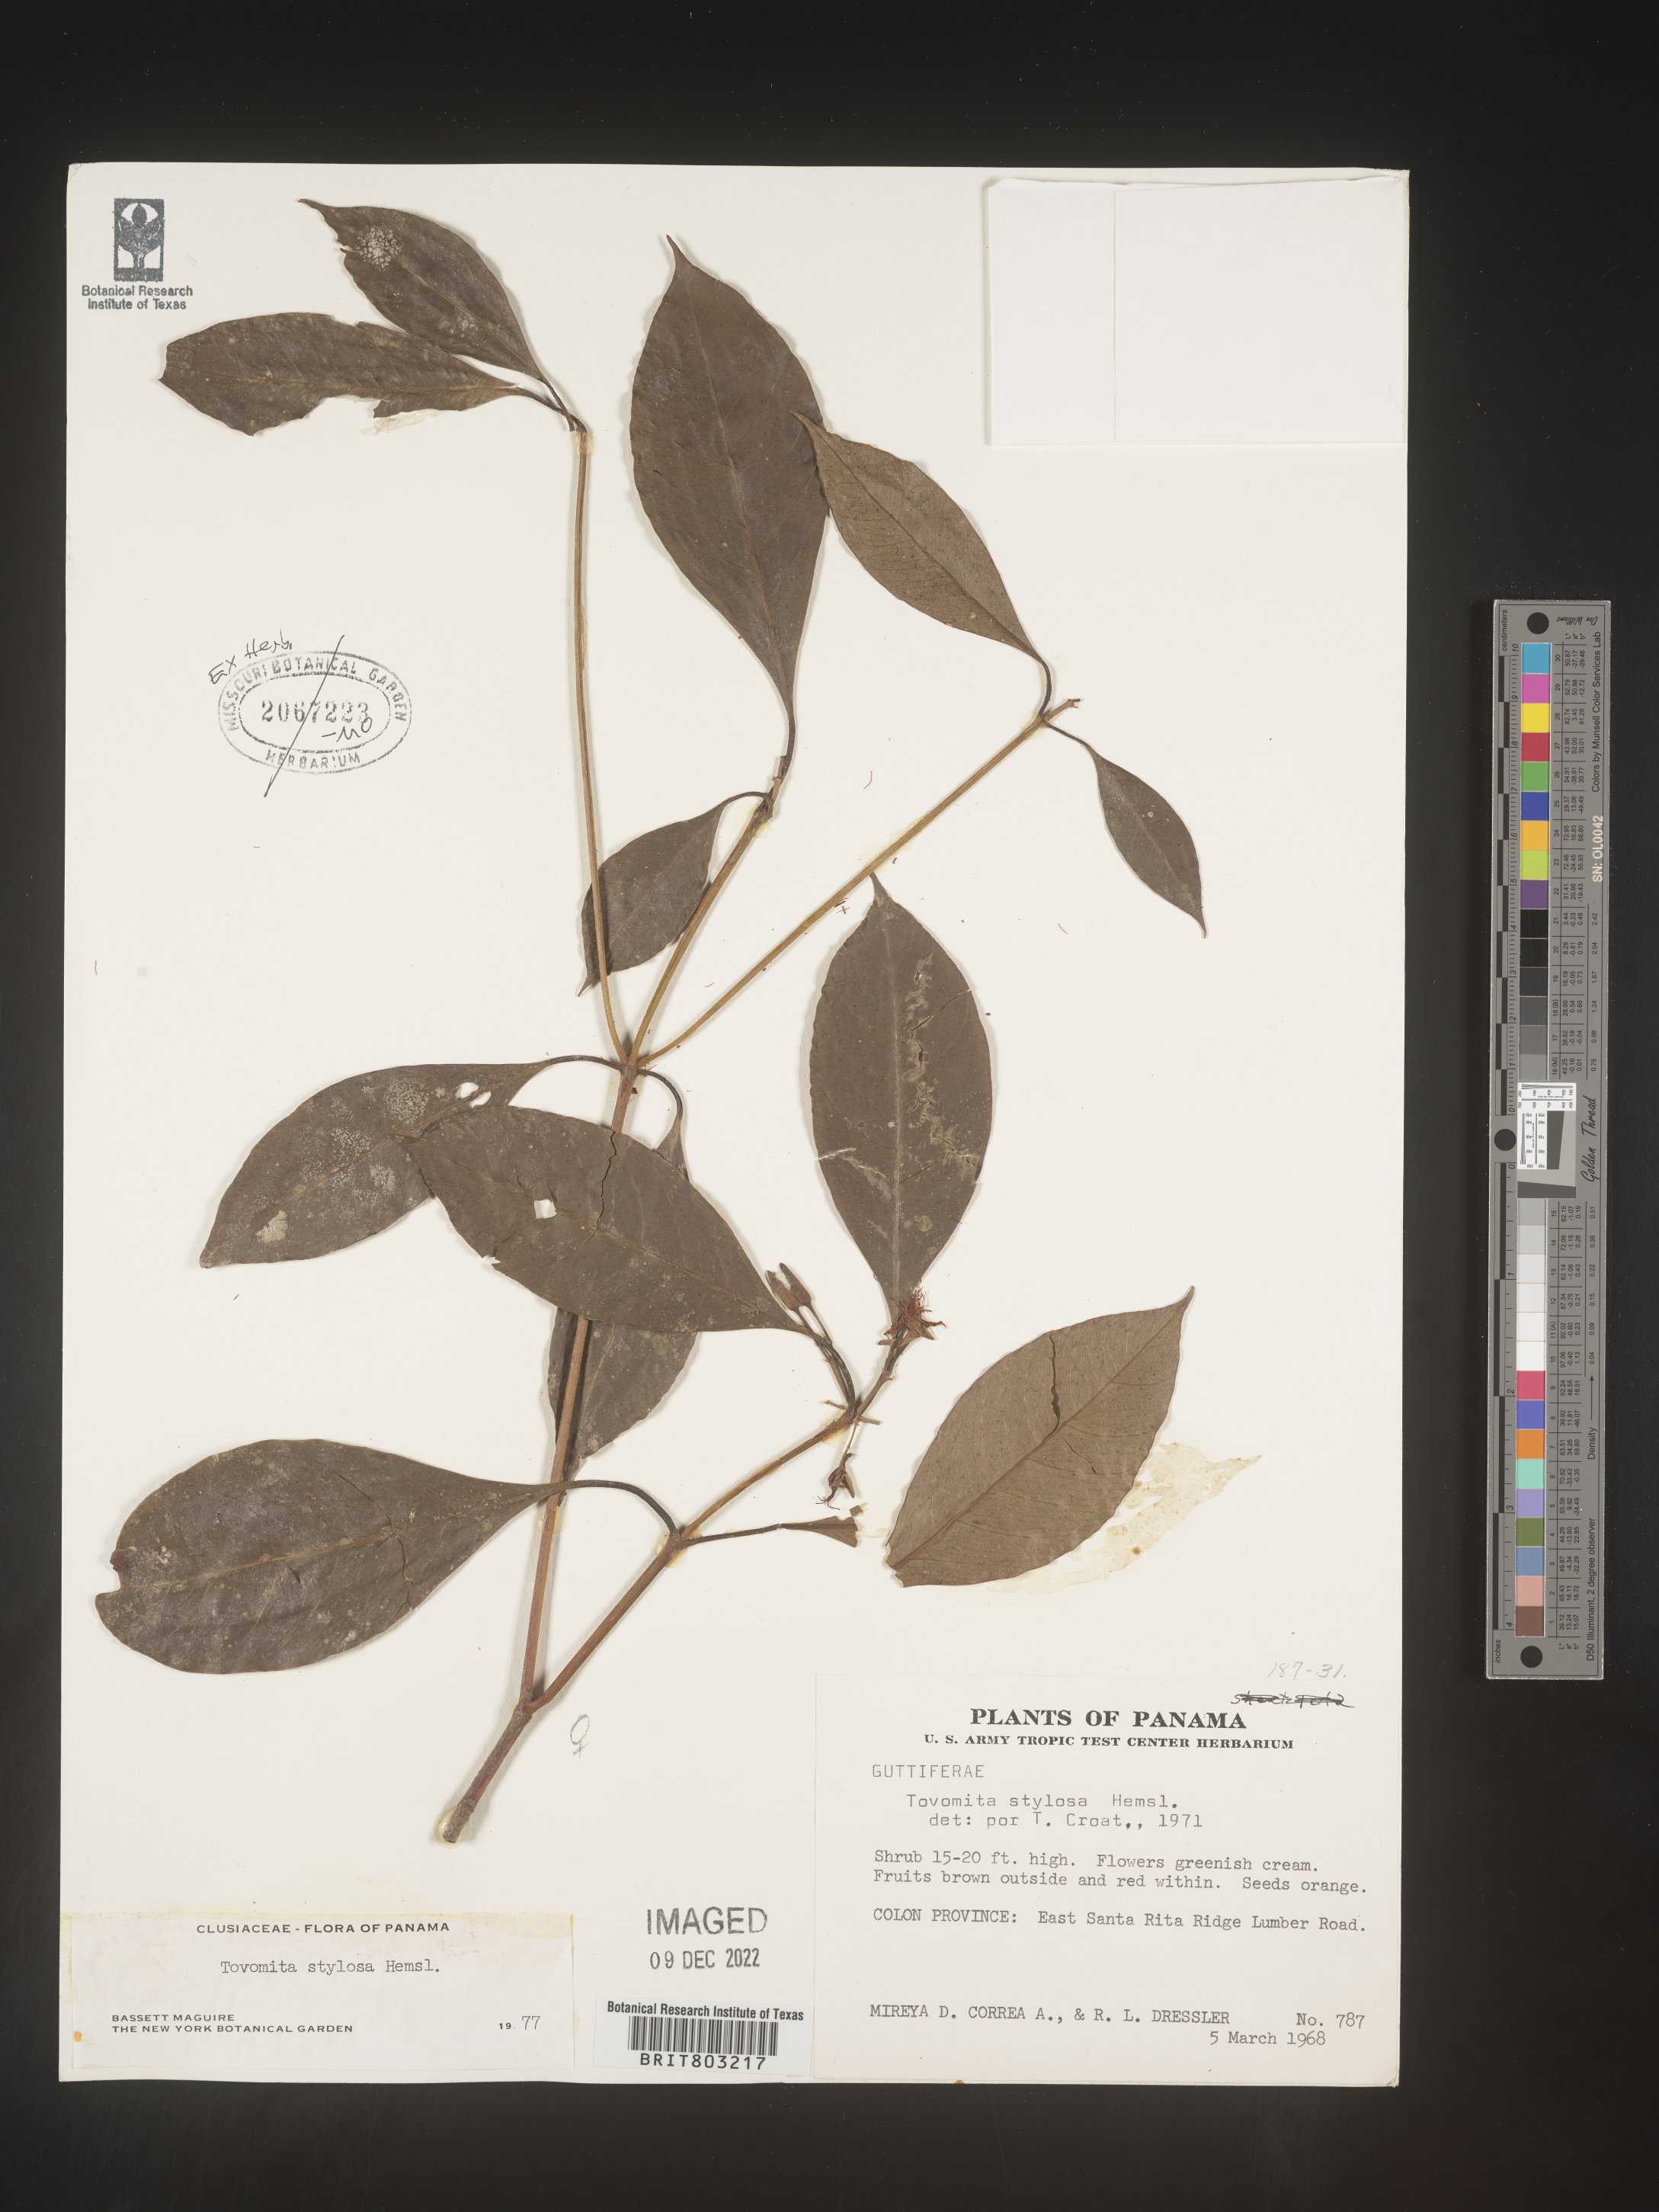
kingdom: Plantae
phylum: Tracheophyta
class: Magnoliopsida
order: Malpighiales
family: Clusiaceae
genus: Tovomita
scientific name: Tovomita
